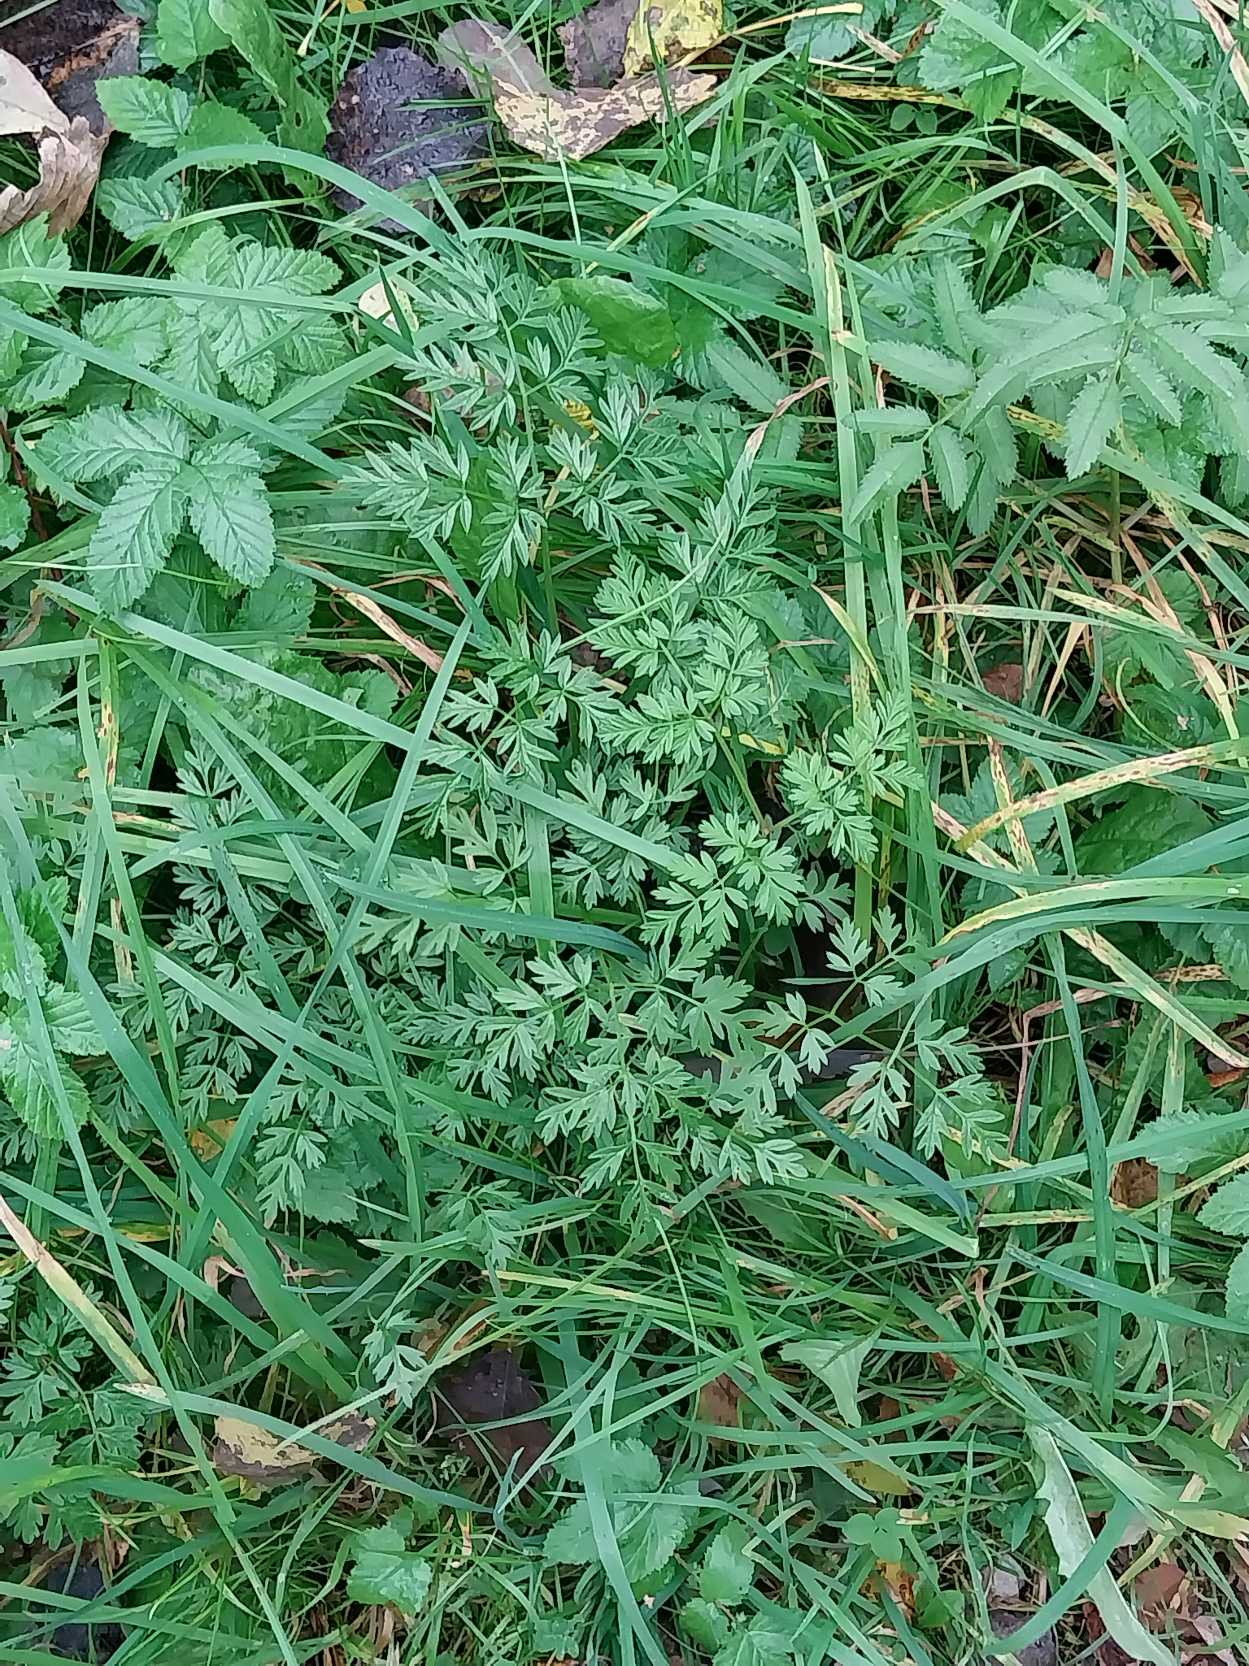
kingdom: Plantae
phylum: Tracheophyta
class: Magnoliopsida
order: Apiales
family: Apiaceae
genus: Anthriscus
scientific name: Anthriscus sylvestris
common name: Vild kørvel
